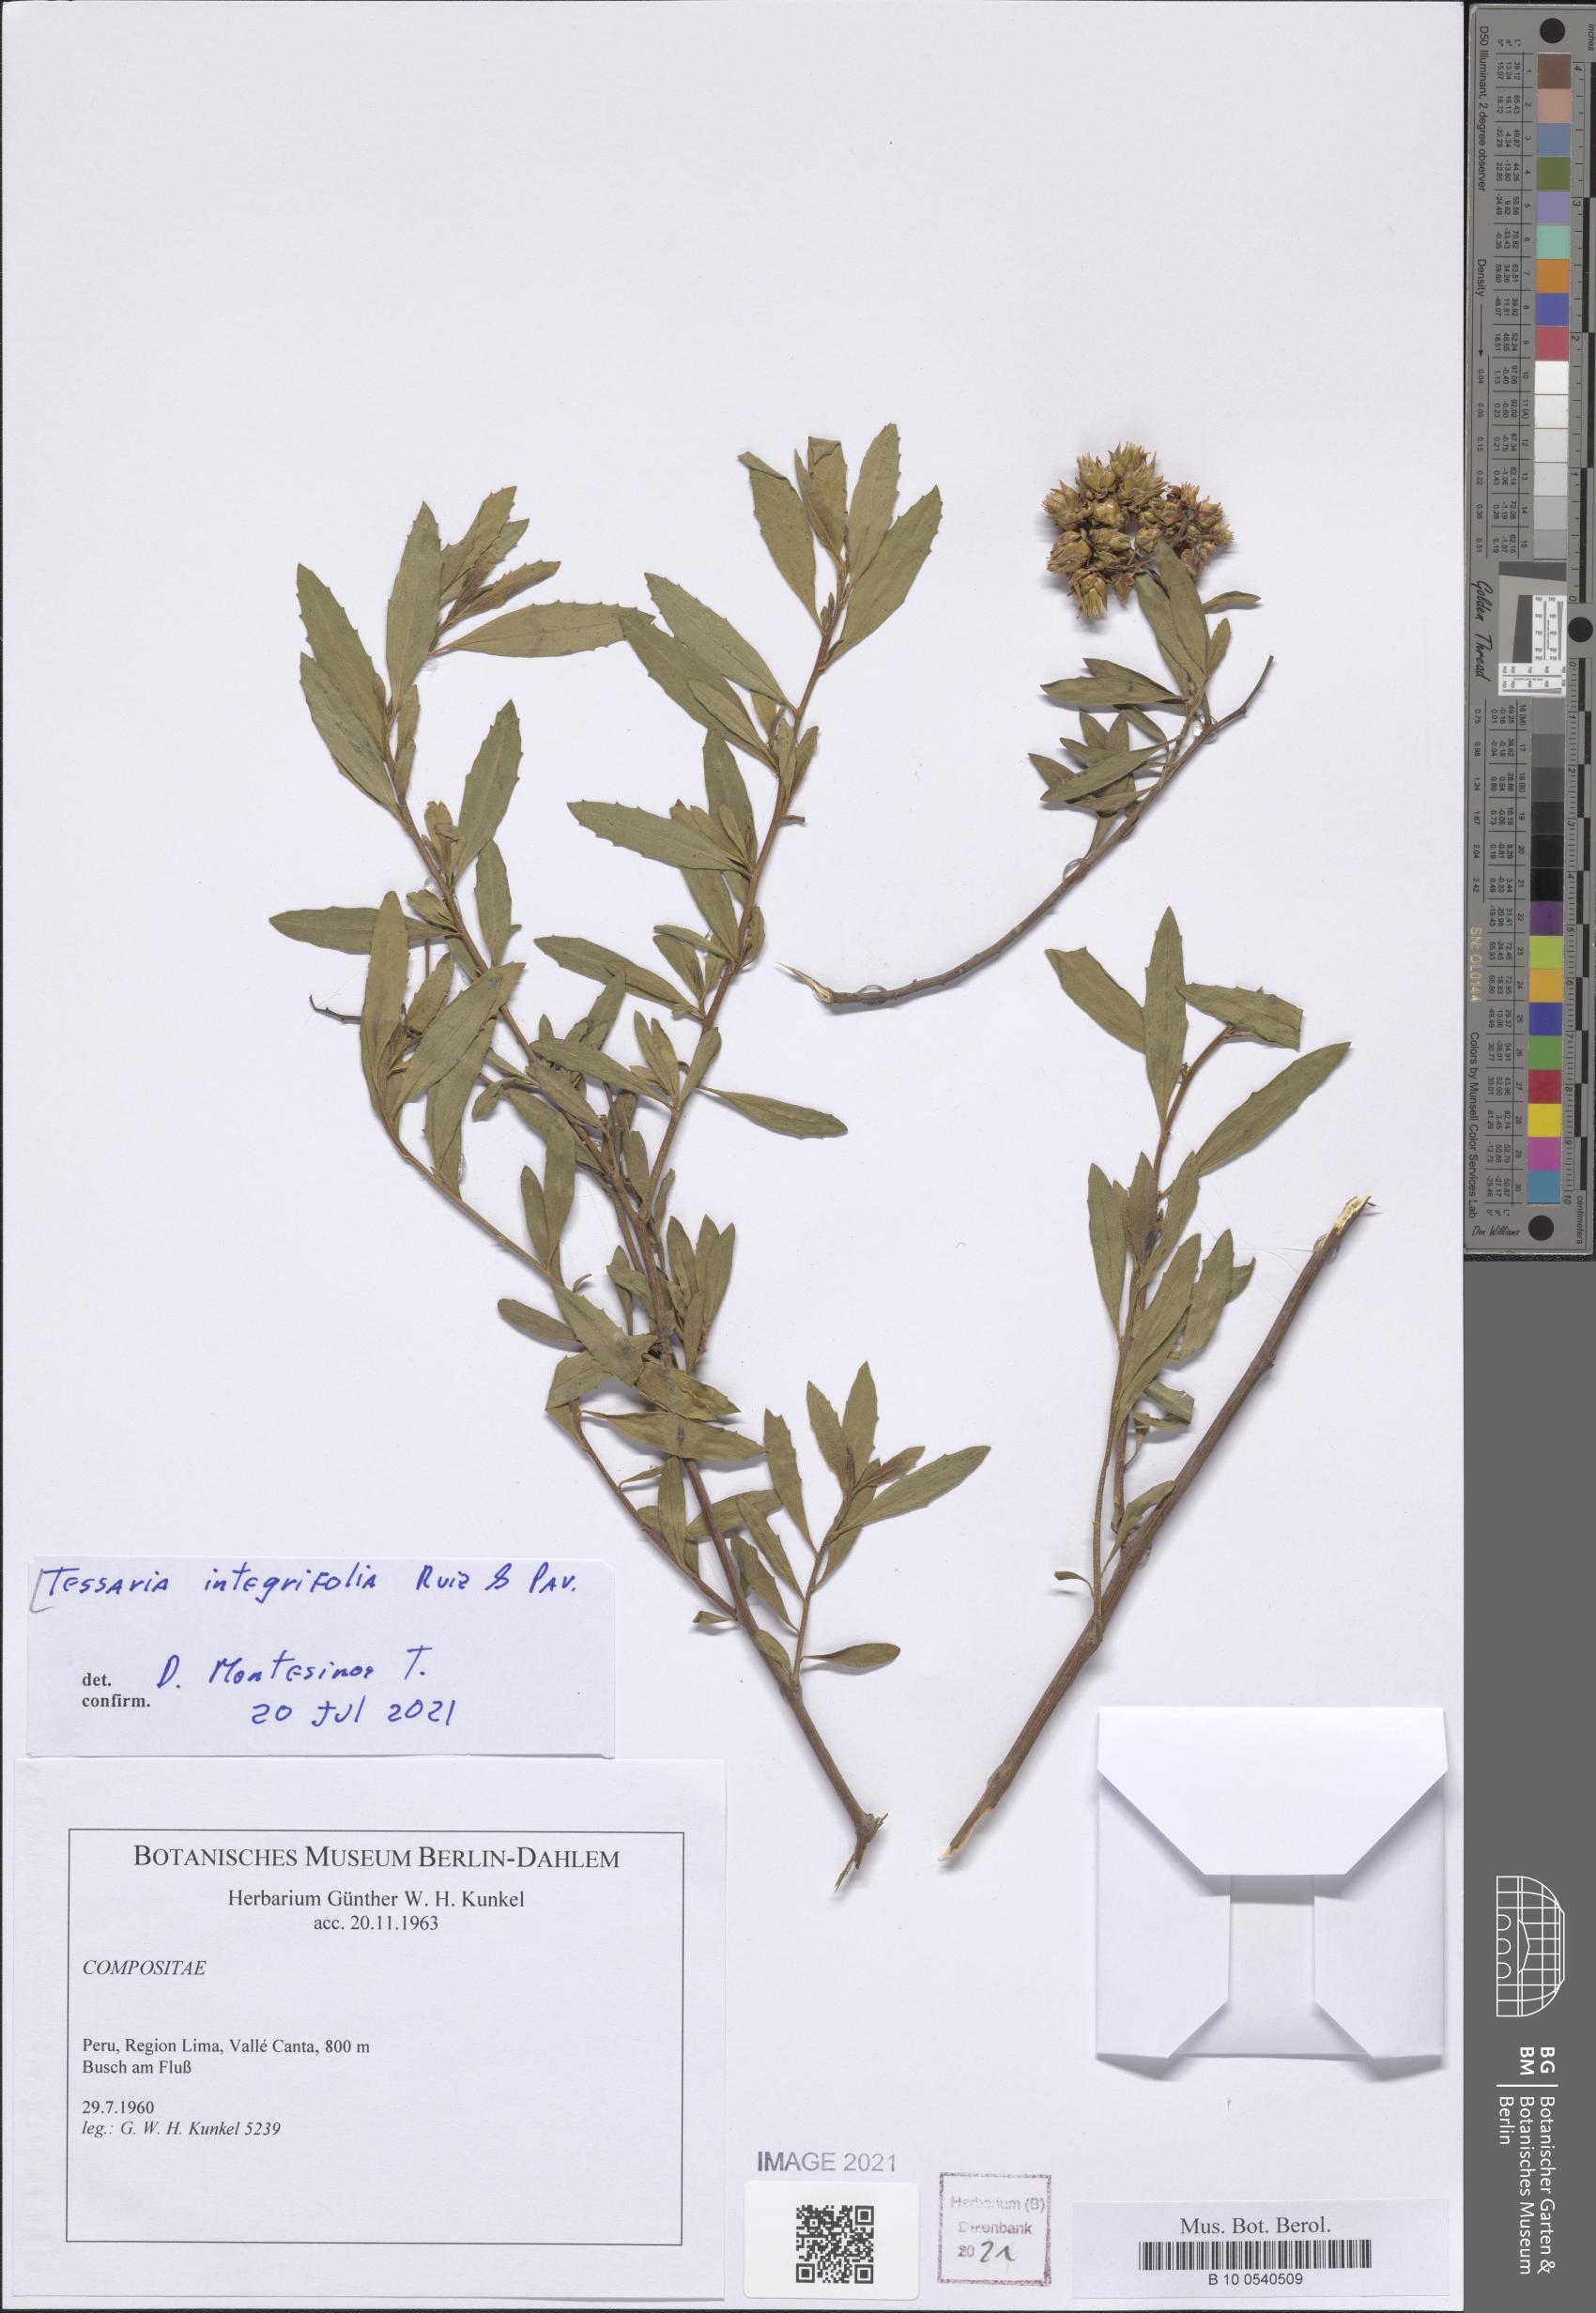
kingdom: Plantae
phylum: Tracheophyta
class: Magnoliopsida
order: Asterales
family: Asteraceae
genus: Tessaria
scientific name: Tessaria integrifolia
